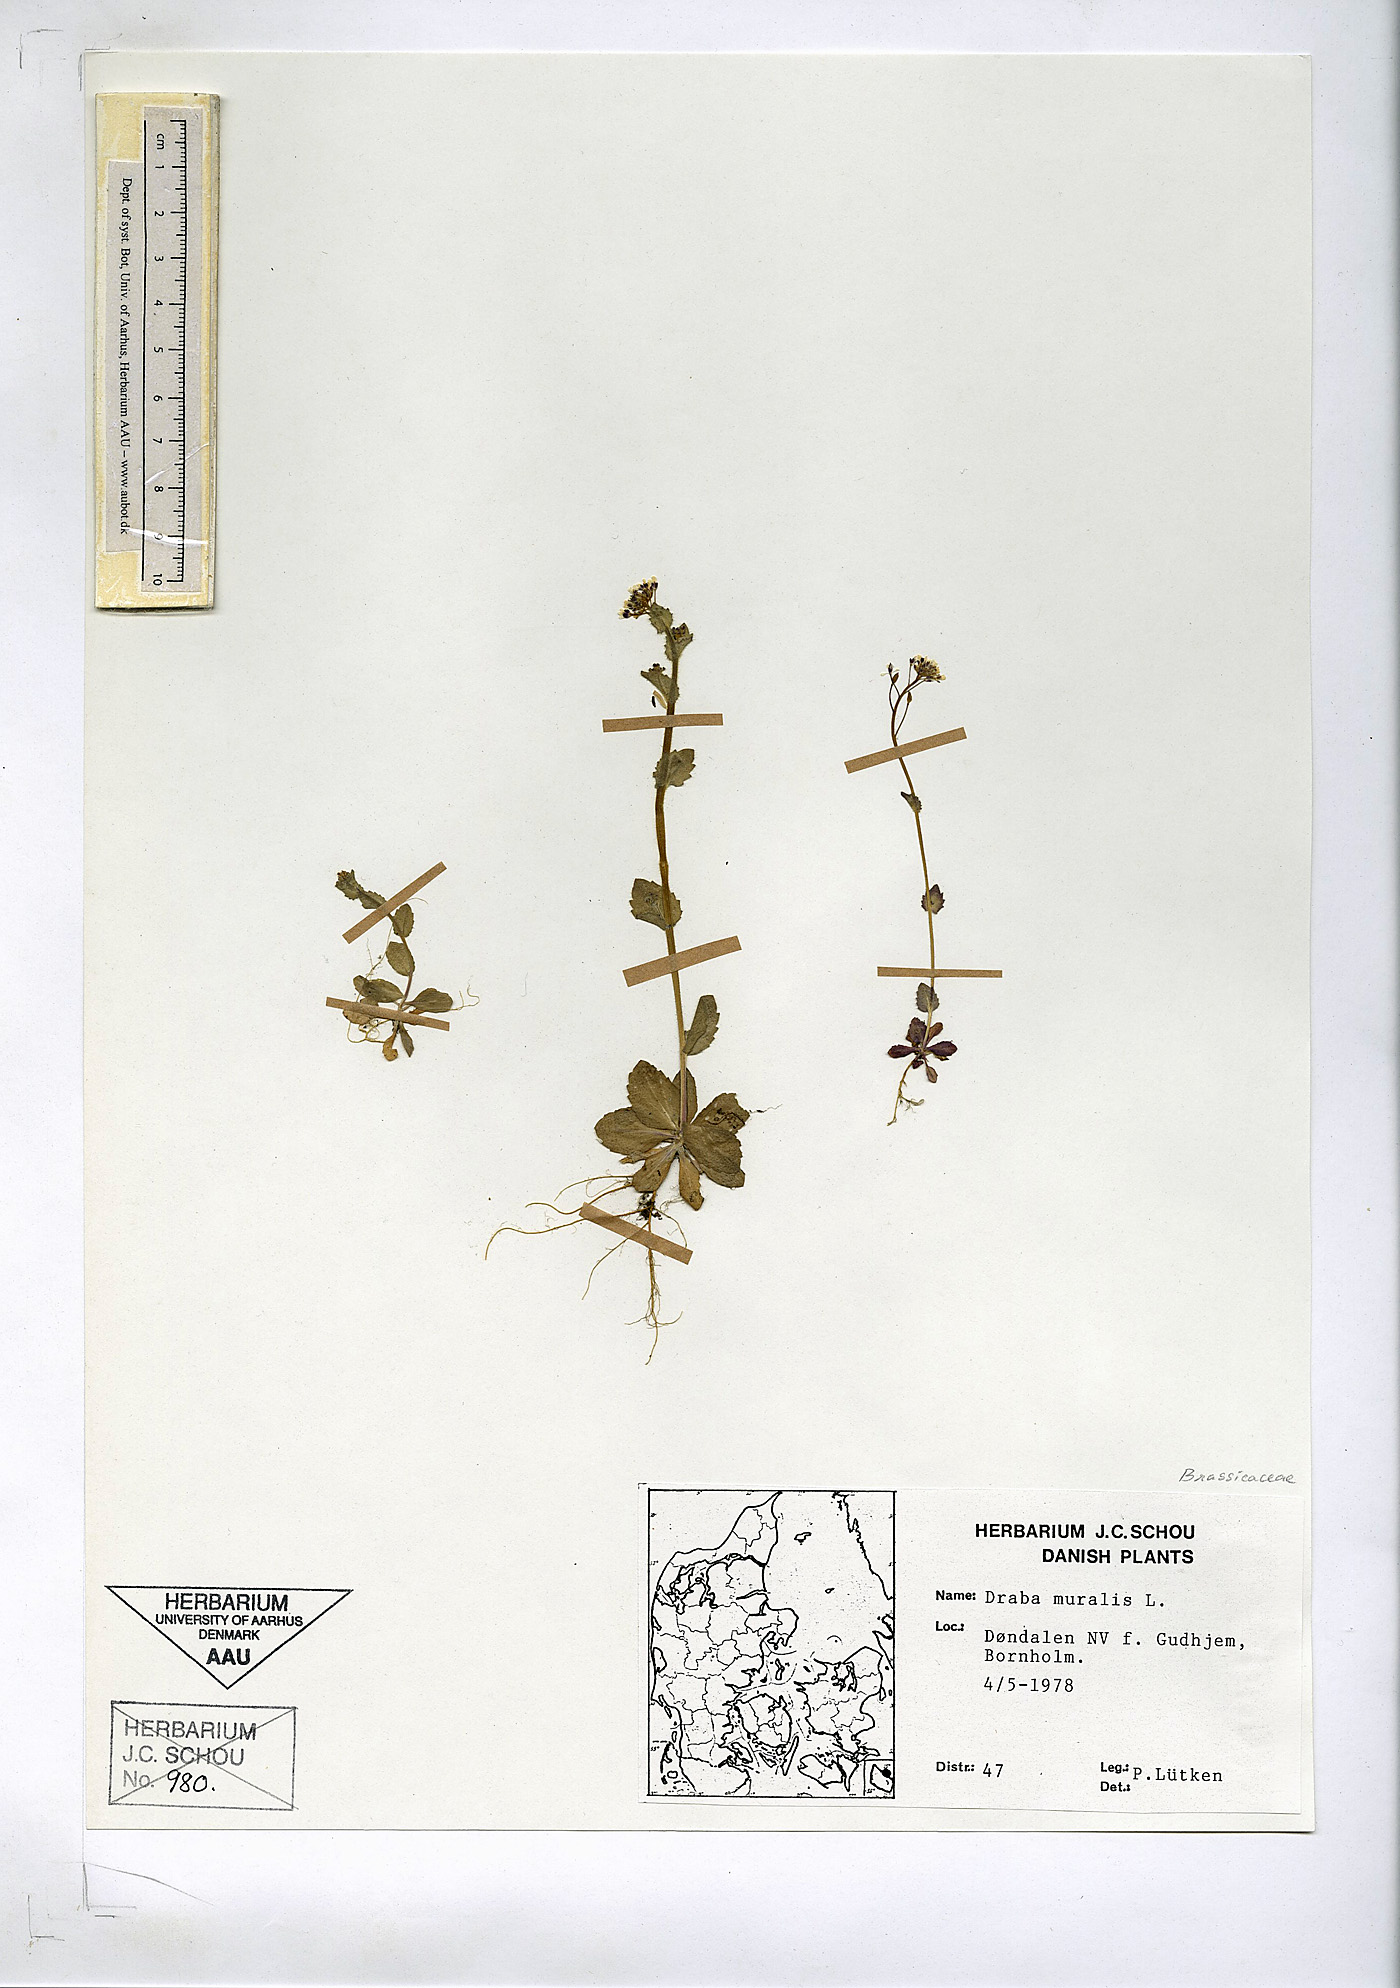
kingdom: Plantae
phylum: Tracheophyta
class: Magnoliopsida
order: Brassicales
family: Brassicaceae
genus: Drabella
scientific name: Drabella muralis
